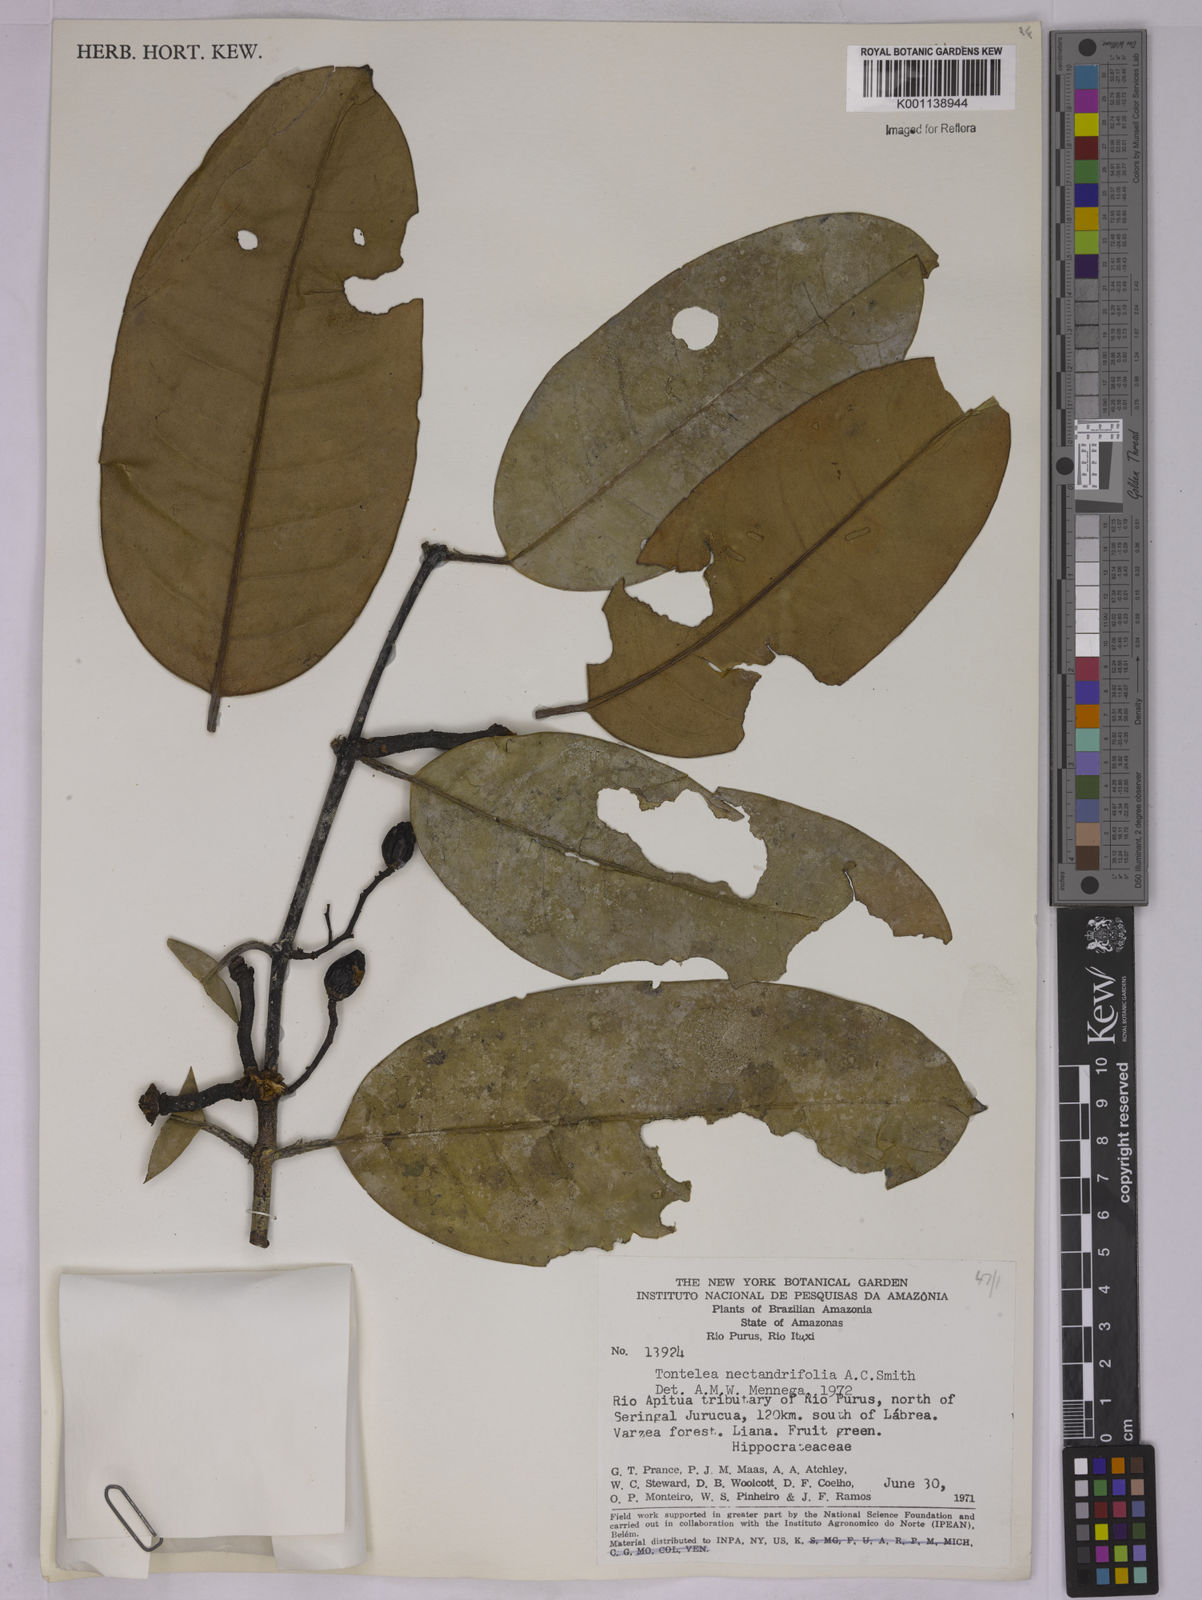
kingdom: Plantae
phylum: Tracheophyta
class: Magnoliopsida
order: Celastrales
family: Celastraceae
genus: Peritassa
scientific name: Peritassa nectandrifolia
